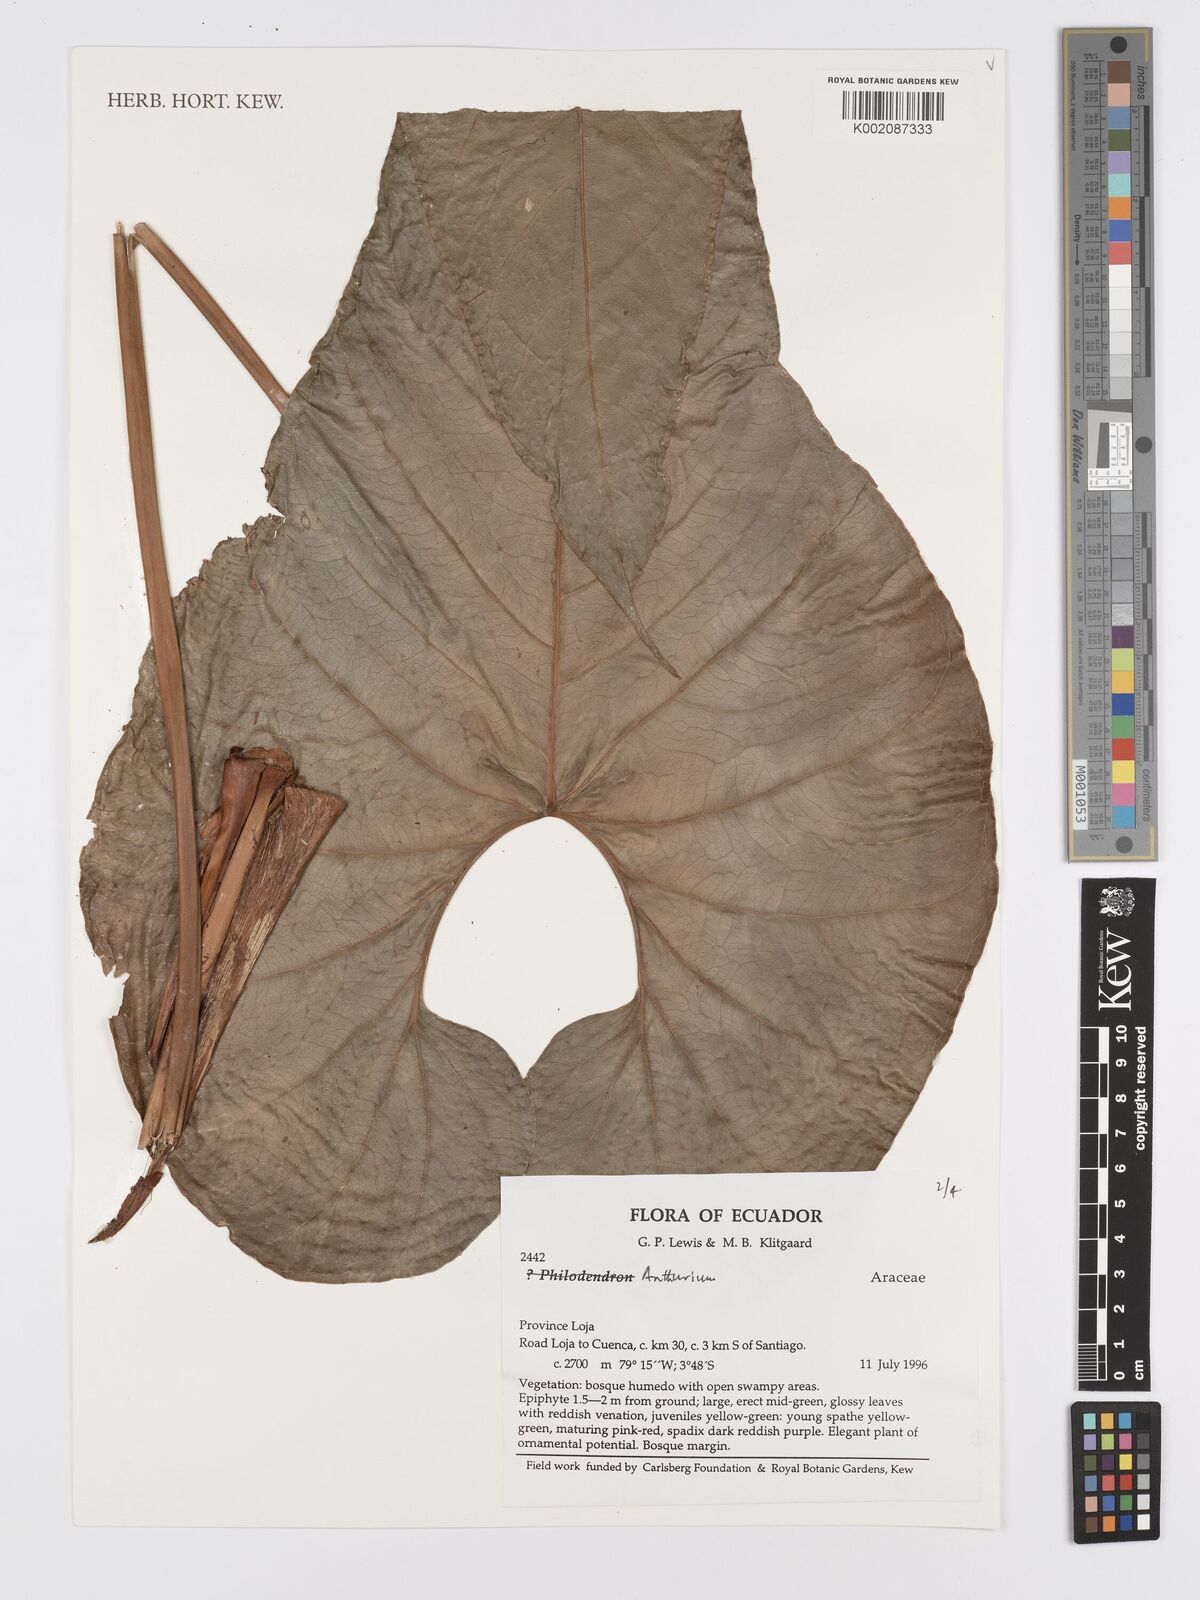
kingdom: Plantae
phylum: Tracheophyta
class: Liliopsida
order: Alismatales
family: Araceae
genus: Anthurium
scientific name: Anthurium
